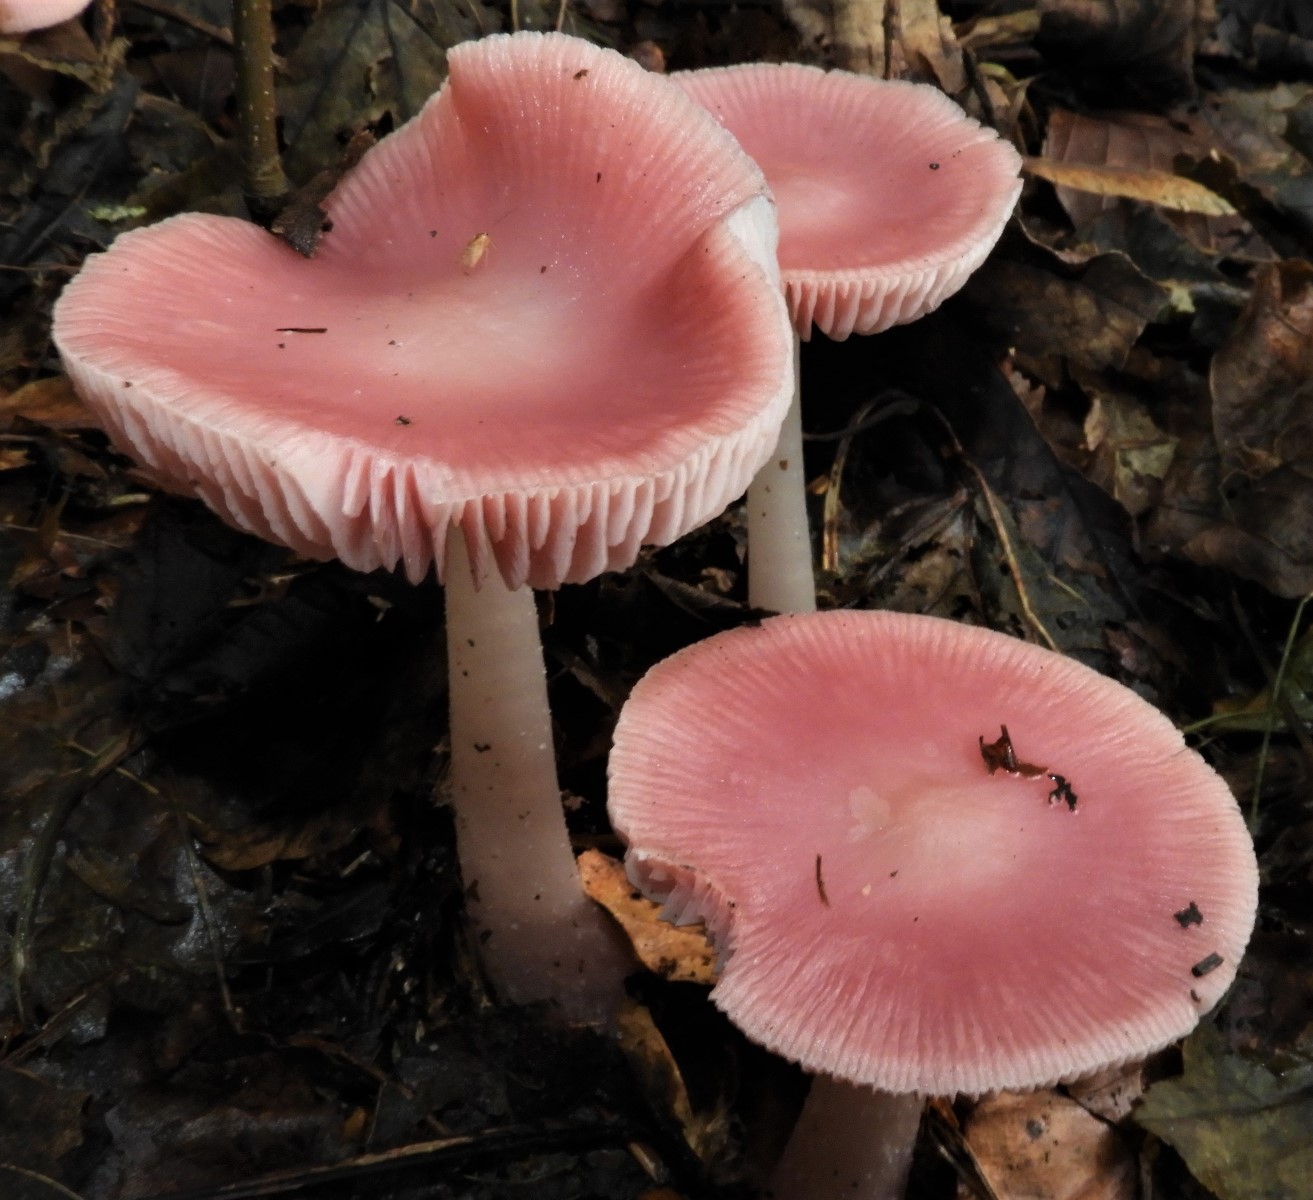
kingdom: Fungi
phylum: Basidiomycota
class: Agaricomycetes
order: Agaricales
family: Mycenaceae
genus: Mycena
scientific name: Mycena rosea
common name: rosa huesvamp
